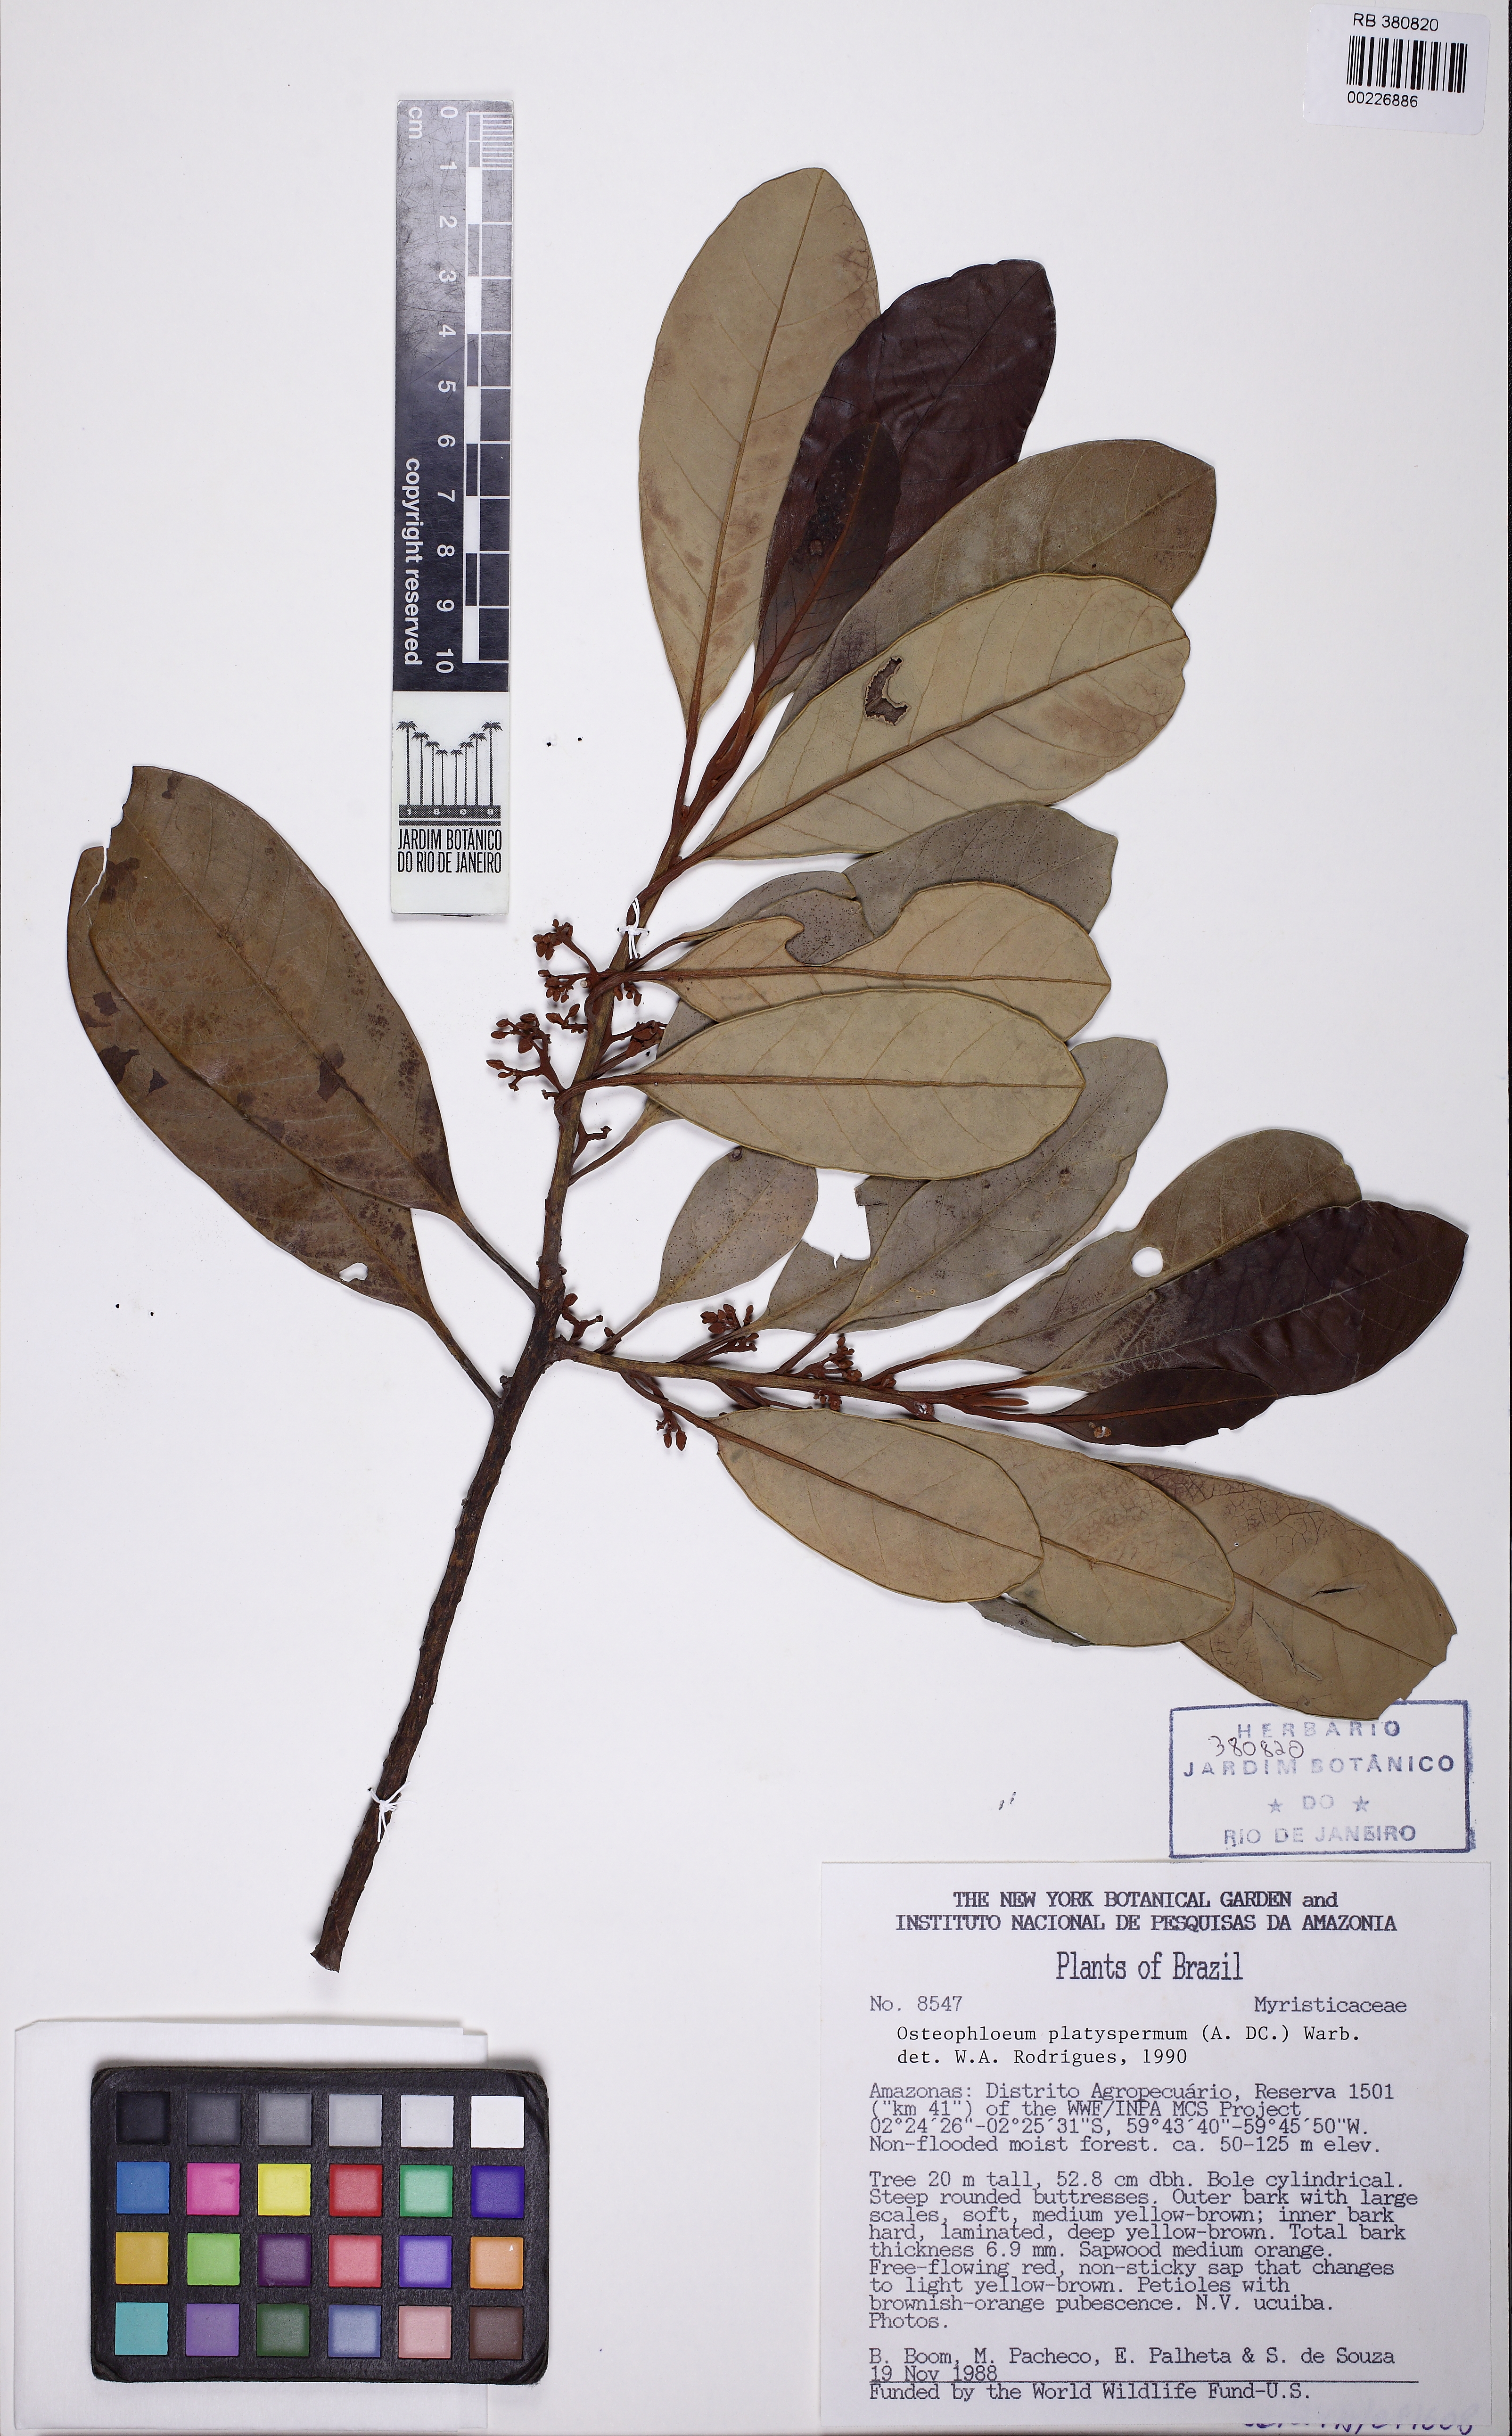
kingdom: Plantae
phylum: Tracheophyta
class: Magnoliopsida
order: Magnoliales
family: Myristicaceae
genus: Osteophloeum
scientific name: Osteophloeum platyspermum
